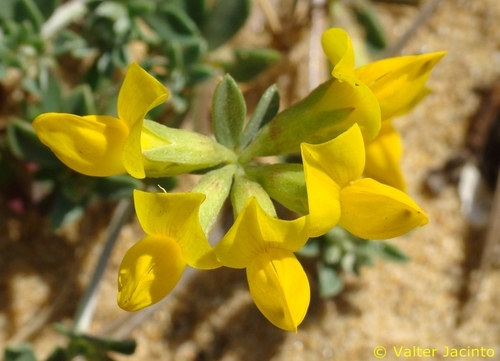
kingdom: Plantae
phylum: Tracheophyta
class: Magnoliopsida
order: Fabales
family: Fabaceae
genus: Lotus
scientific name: Lotus
